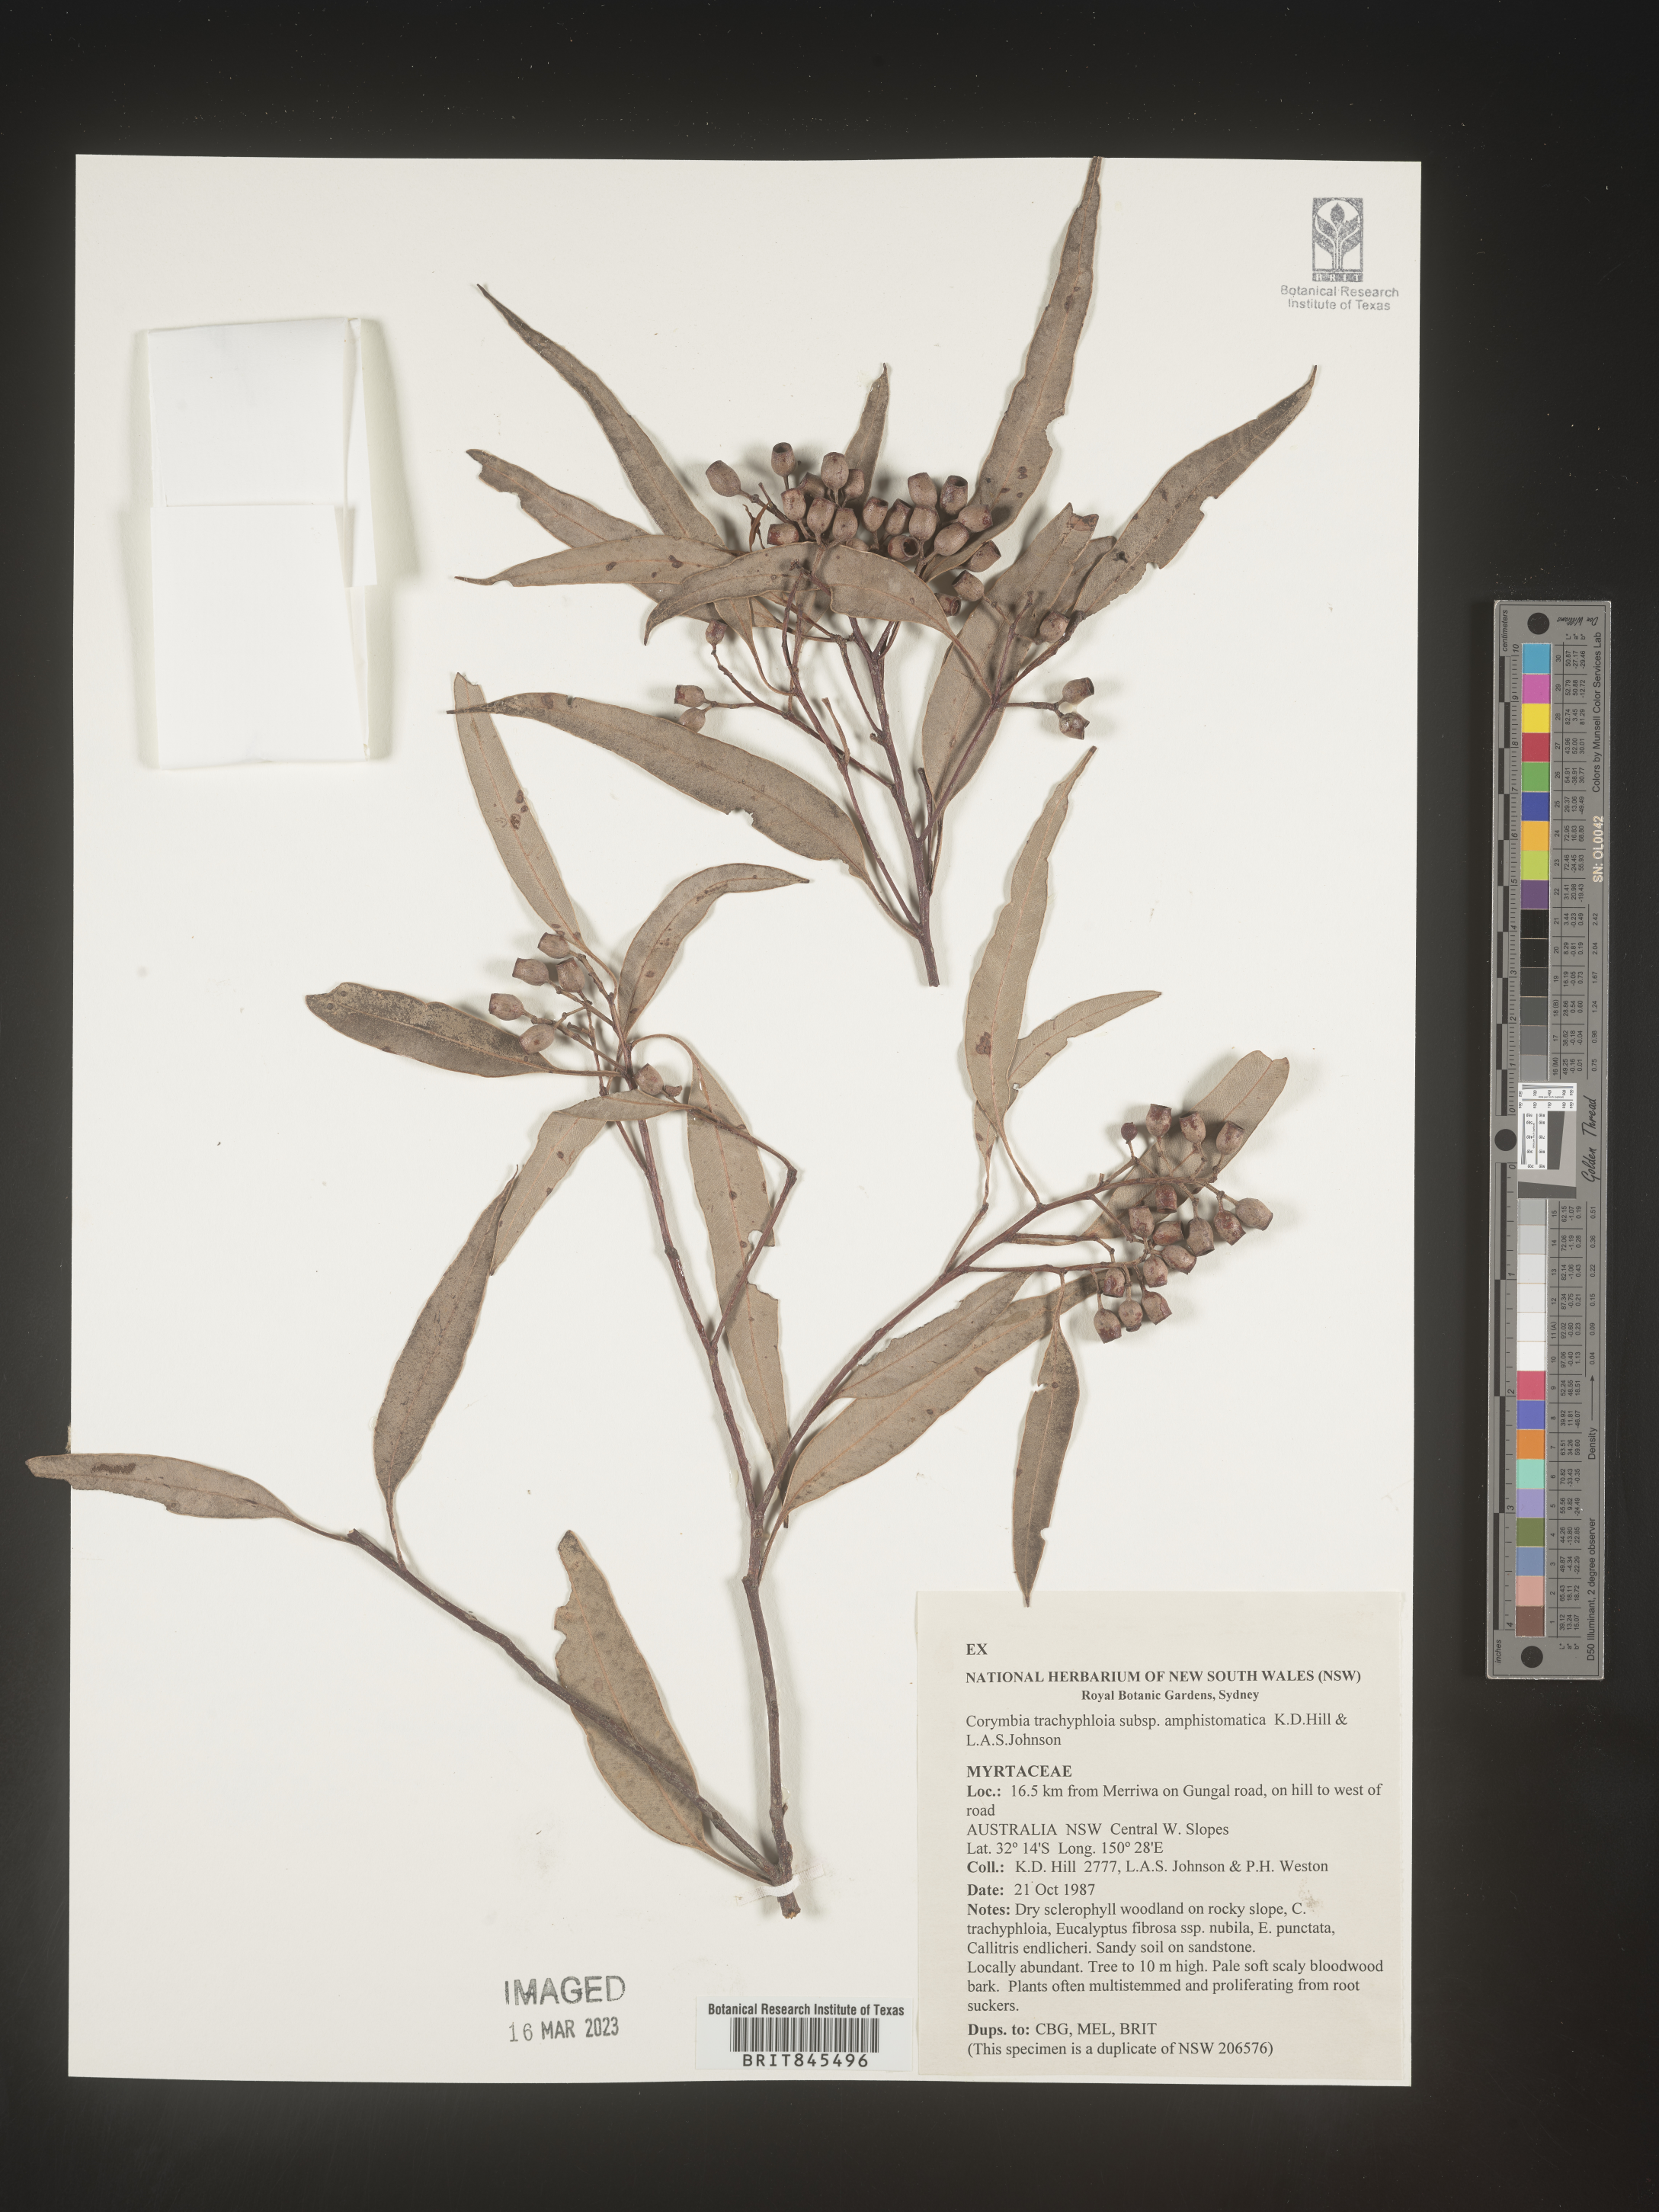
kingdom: Plantae
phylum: Tracheophyta
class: Magnoliopsida
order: Myrtales
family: Myrtaceae
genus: Corymbia
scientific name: Corymbia
